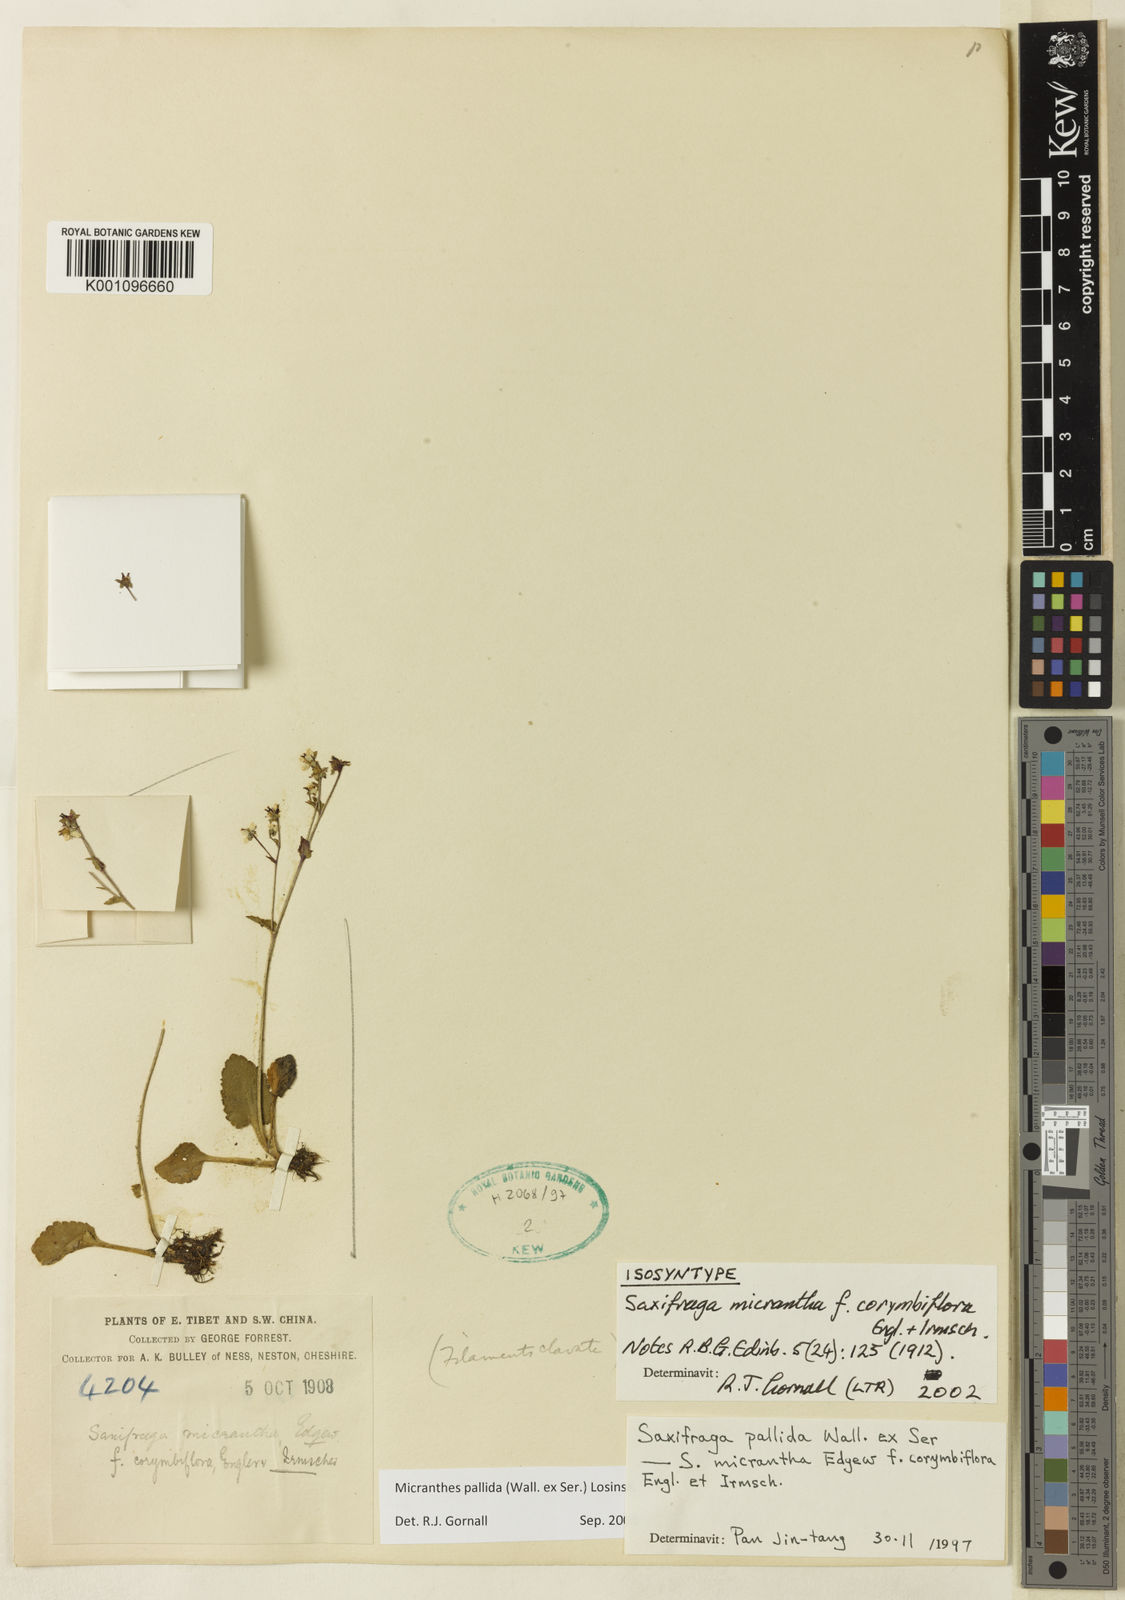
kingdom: Plantae
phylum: Tracheophyta
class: Magnoliopsida
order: Saxifragales
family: Saxifragaceae
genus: Micranthes
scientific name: Micranthes pallida
